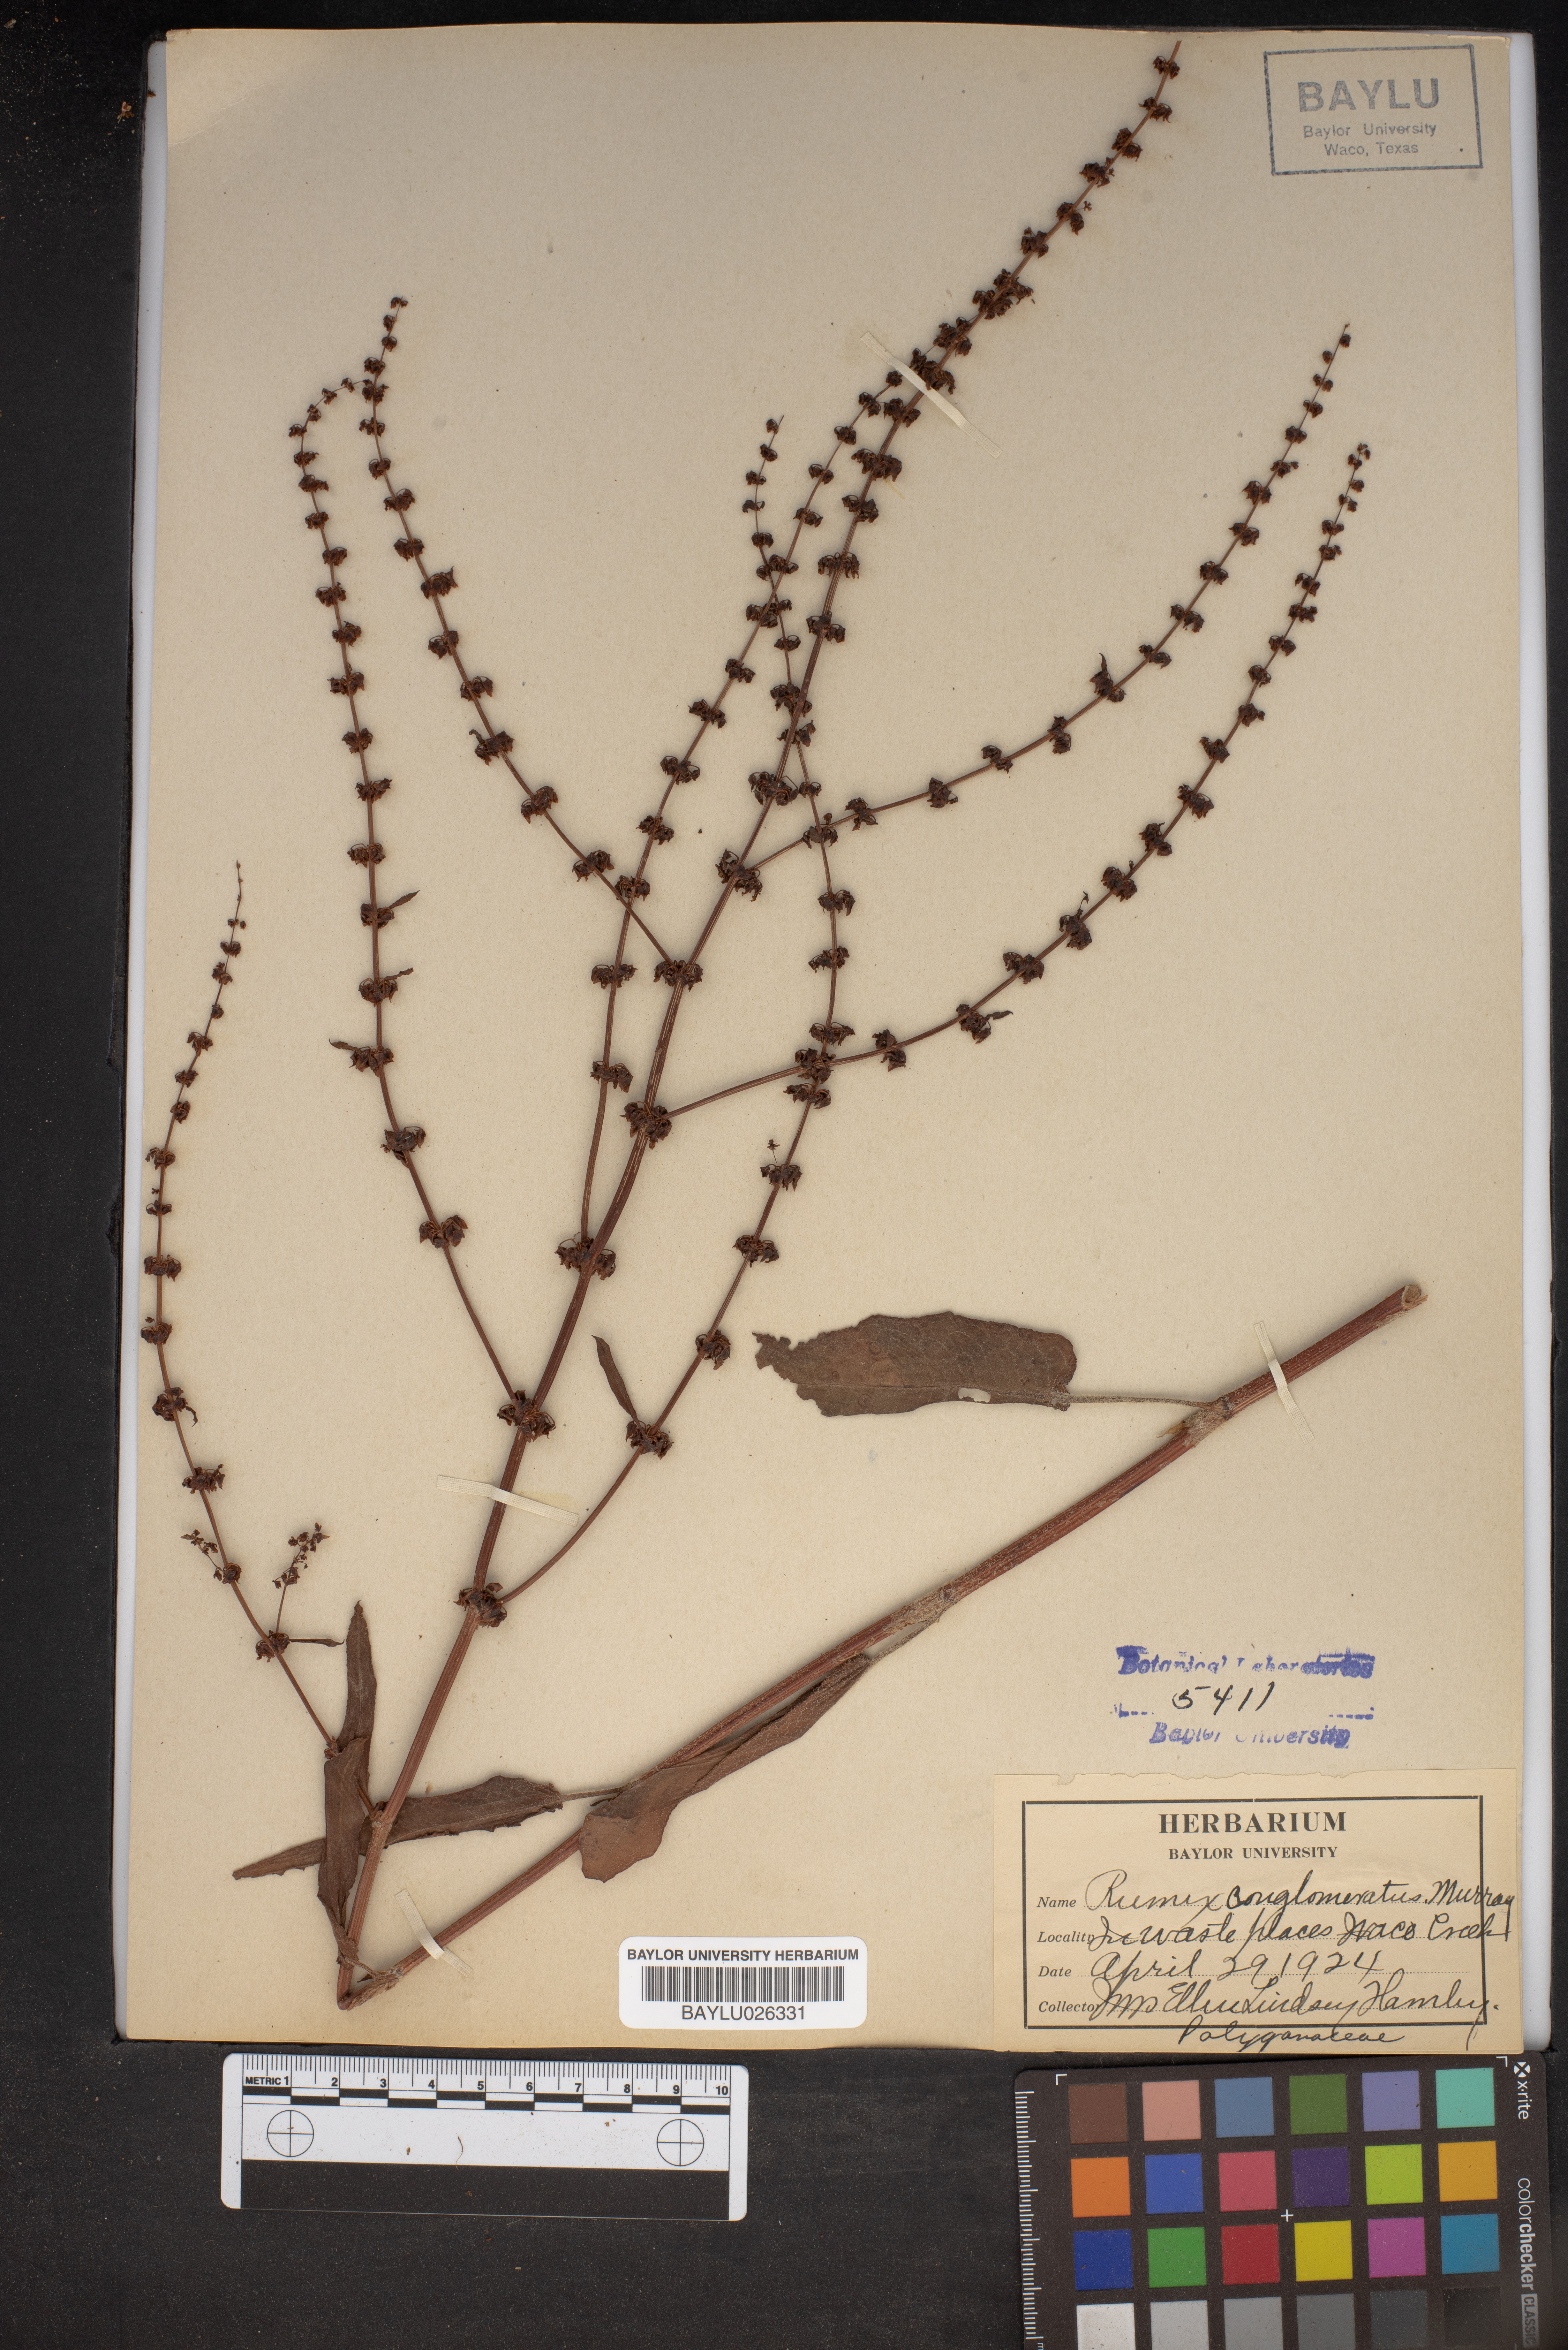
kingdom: Plantae
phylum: Tracheophyta
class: Magnoliopsida
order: Caryophyllales
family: Polygonaceae
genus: Rumex
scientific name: Rumex conglomeratus
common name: Clustered dock
